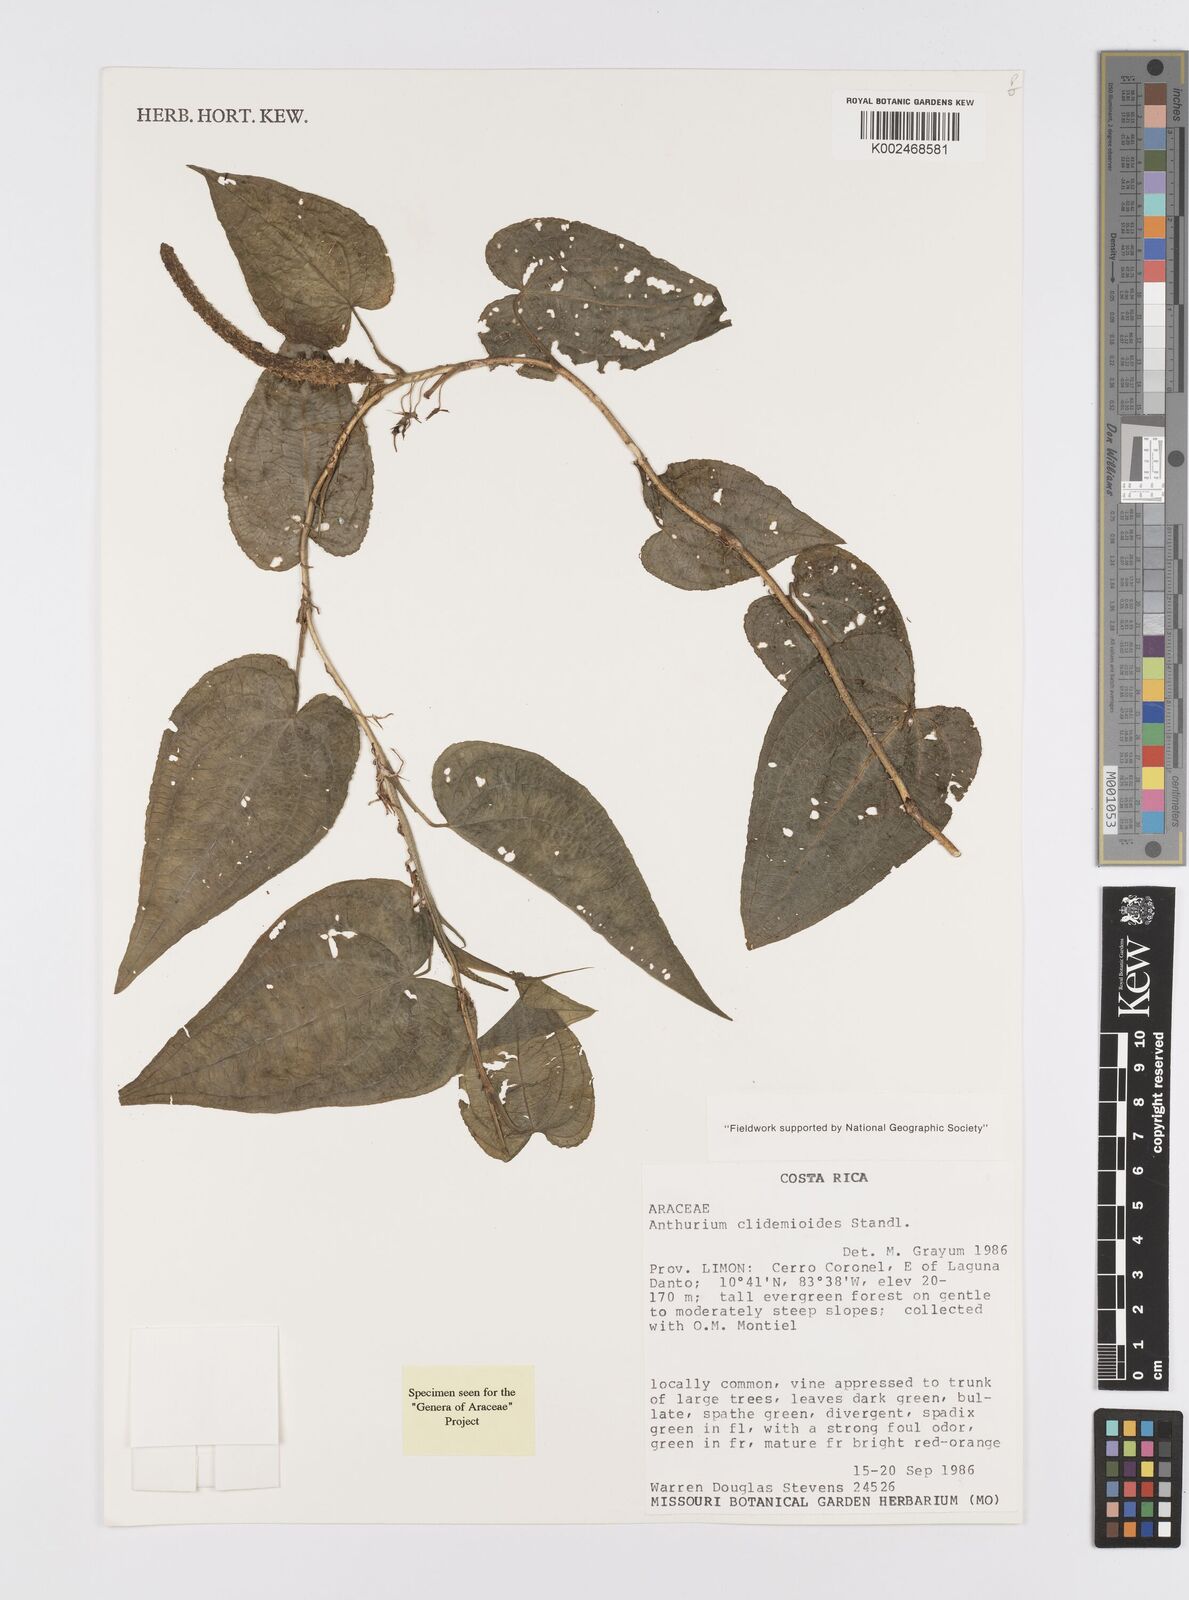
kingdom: Plantae
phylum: Tracheophyta
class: Liliopsida
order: Alismatales
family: Araceae
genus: Anthurium
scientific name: Anthurium clidemioides
